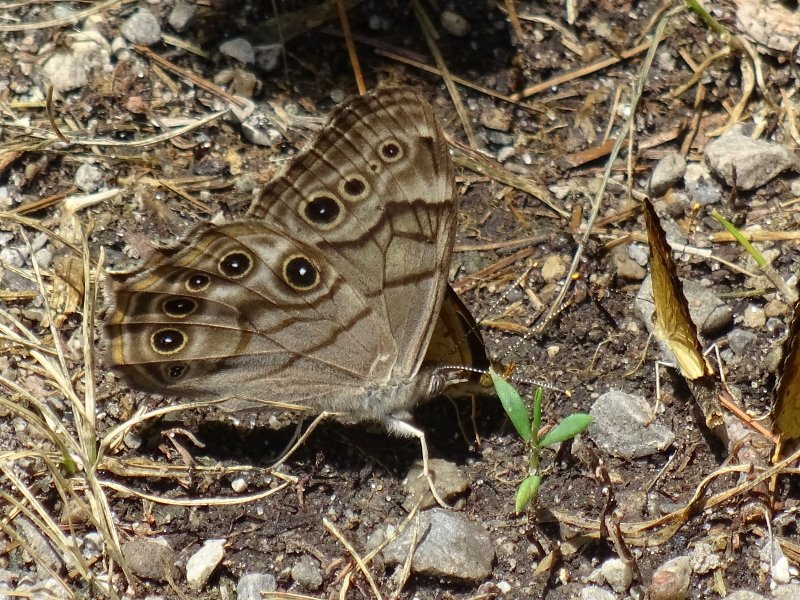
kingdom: Animalia
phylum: Arthropoda
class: Insecta
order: Lepidoptera
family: Nymphalidae
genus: Phyciodes
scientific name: Phyciodes tharos
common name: Northern Crescent
